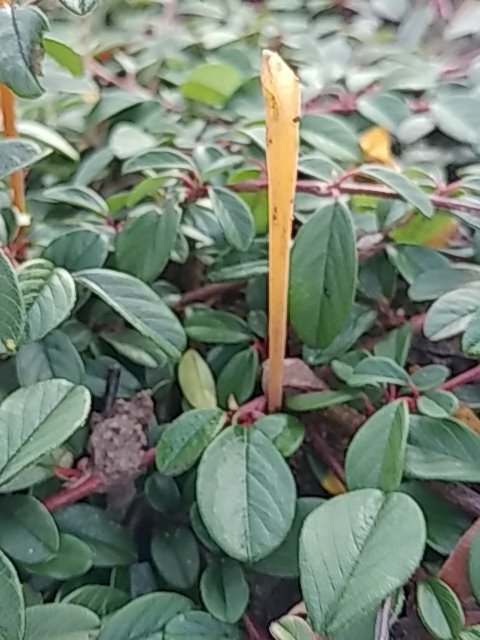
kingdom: Fungi
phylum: Basidiomycota
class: Agaricomycetes
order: Agaricales
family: Typhulaceae
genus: Typhula
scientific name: Typhula fistulosa
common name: pibet rørkølle
